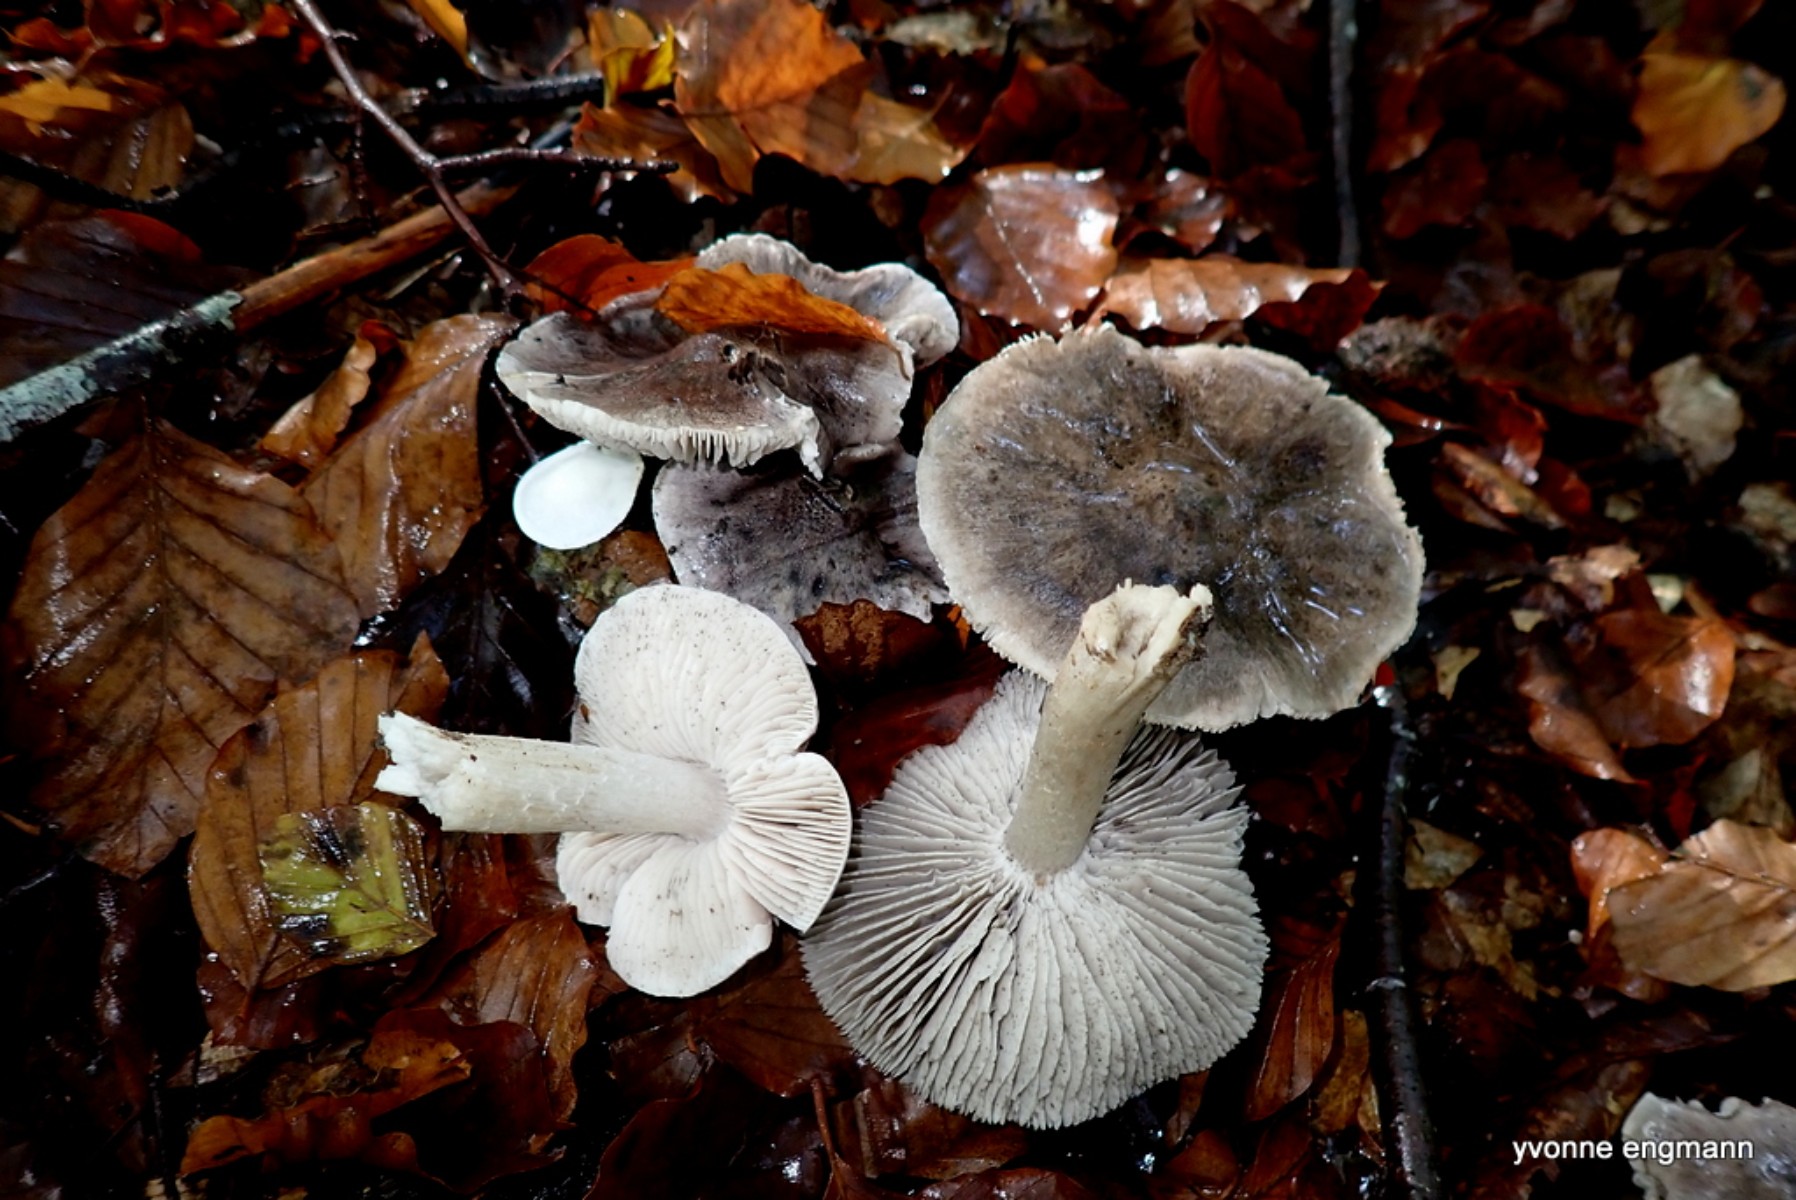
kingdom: Fungi
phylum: Basidiomycota
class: Agaricomycetes
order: Agaricales
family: Tricholomataceae
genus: Tricholoma
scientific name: Tricholoma sciodes
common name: stribet ridderhat
